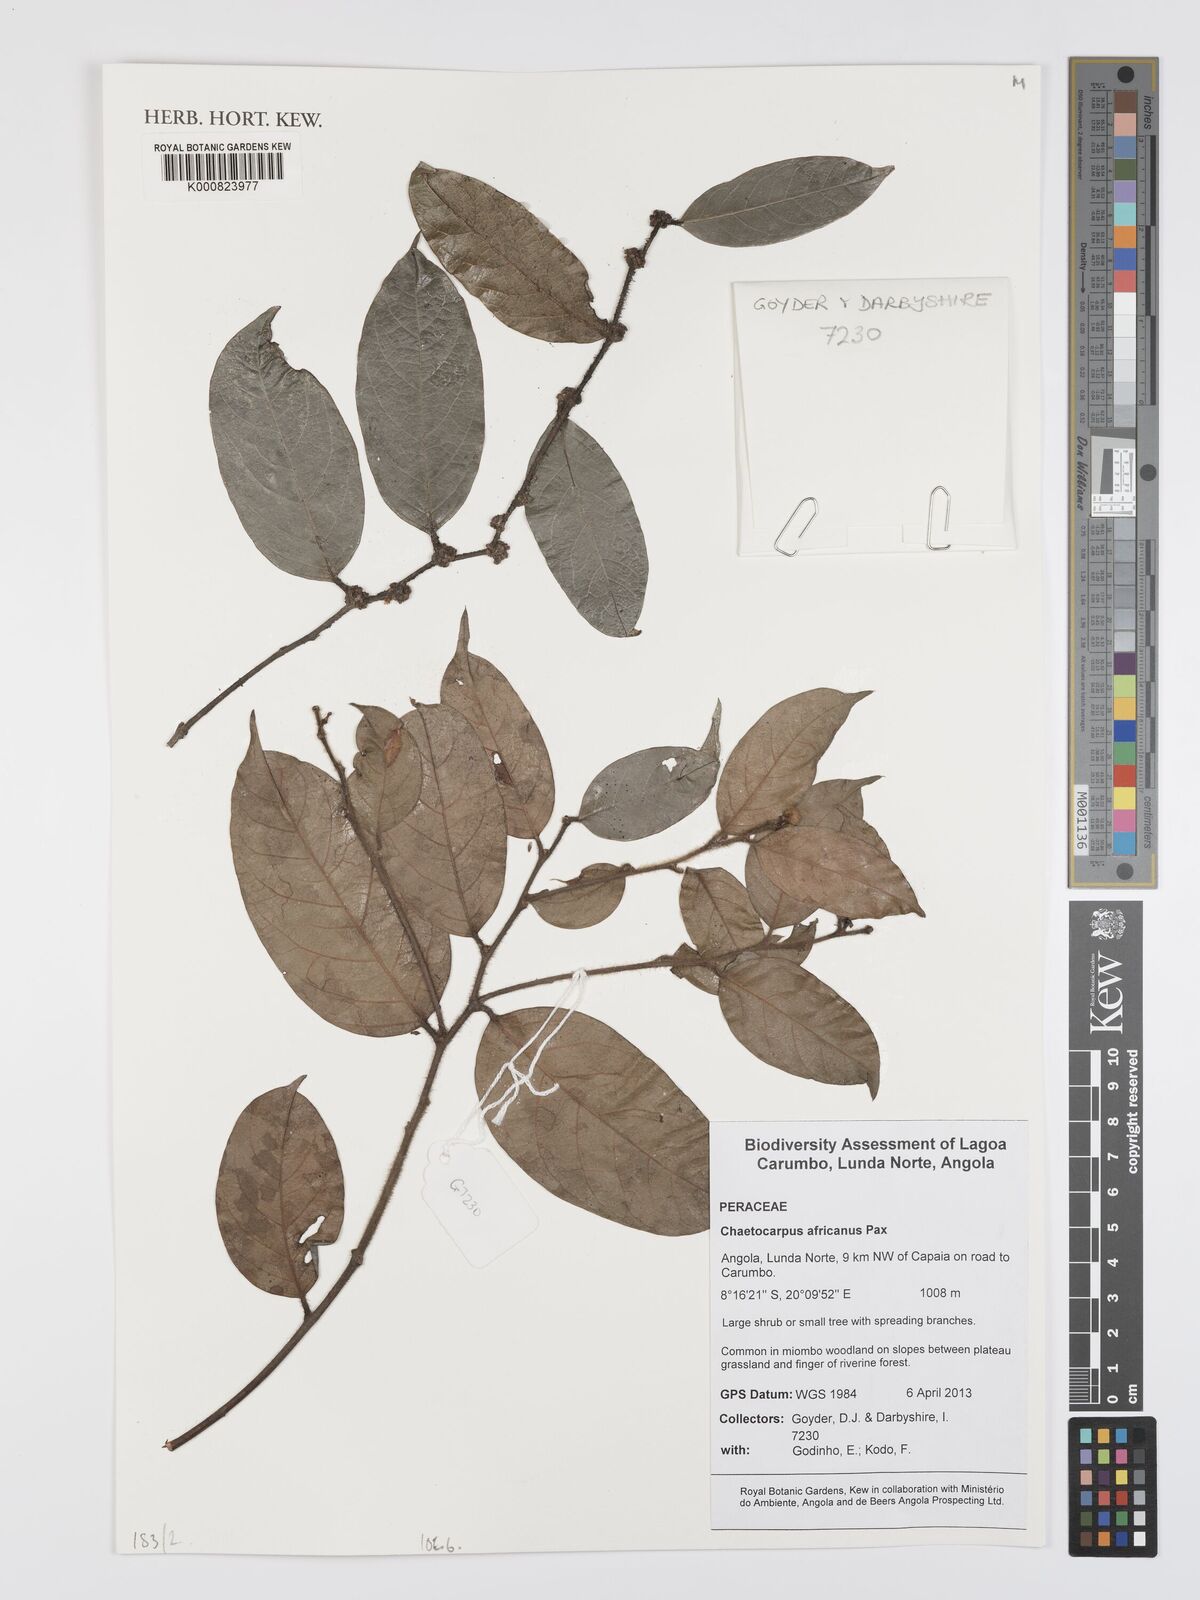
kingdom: Plantae
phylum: Tracheophyta
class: Magnoliopsida
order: Malpighiales
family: Peraceae
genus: Chaetocarpus
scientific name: Chaetocarpus africanus
